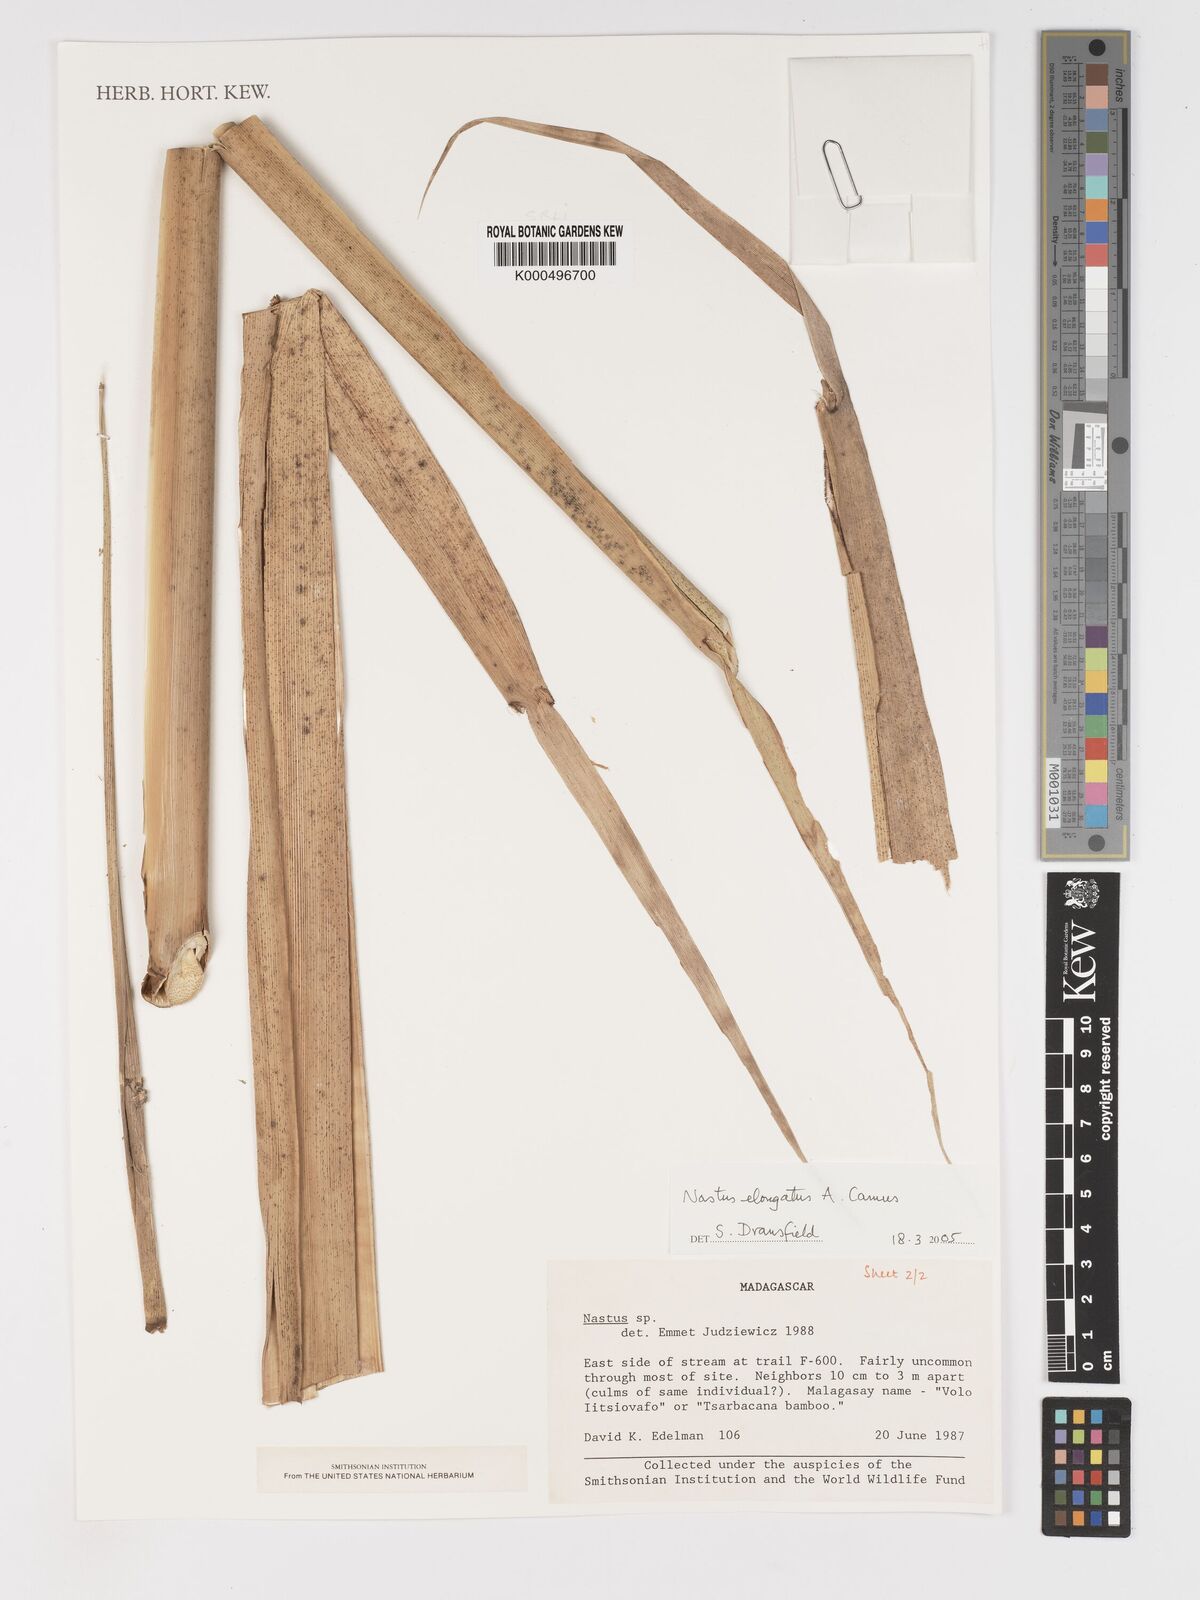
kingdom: Plantae
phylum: Tracheophyta
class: Liliopsida
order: Poales
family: Poaceae
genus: Nastus
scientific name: Nastus elongatus
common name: Spider bamboo
